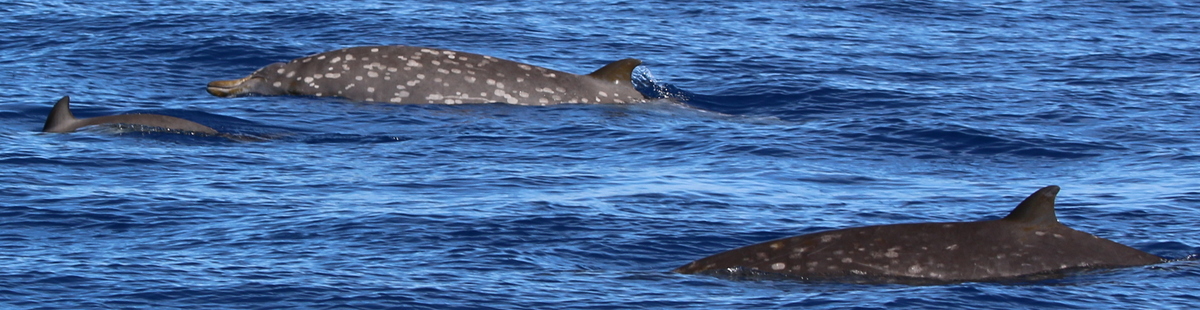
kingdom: Animalia
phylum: Chordata
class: Mammalia
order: Cetacea
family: Hyperoodontidae
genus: Mesoplodon
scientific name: Mesoplodon densirostris
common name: Blainville's Beaked Whale
